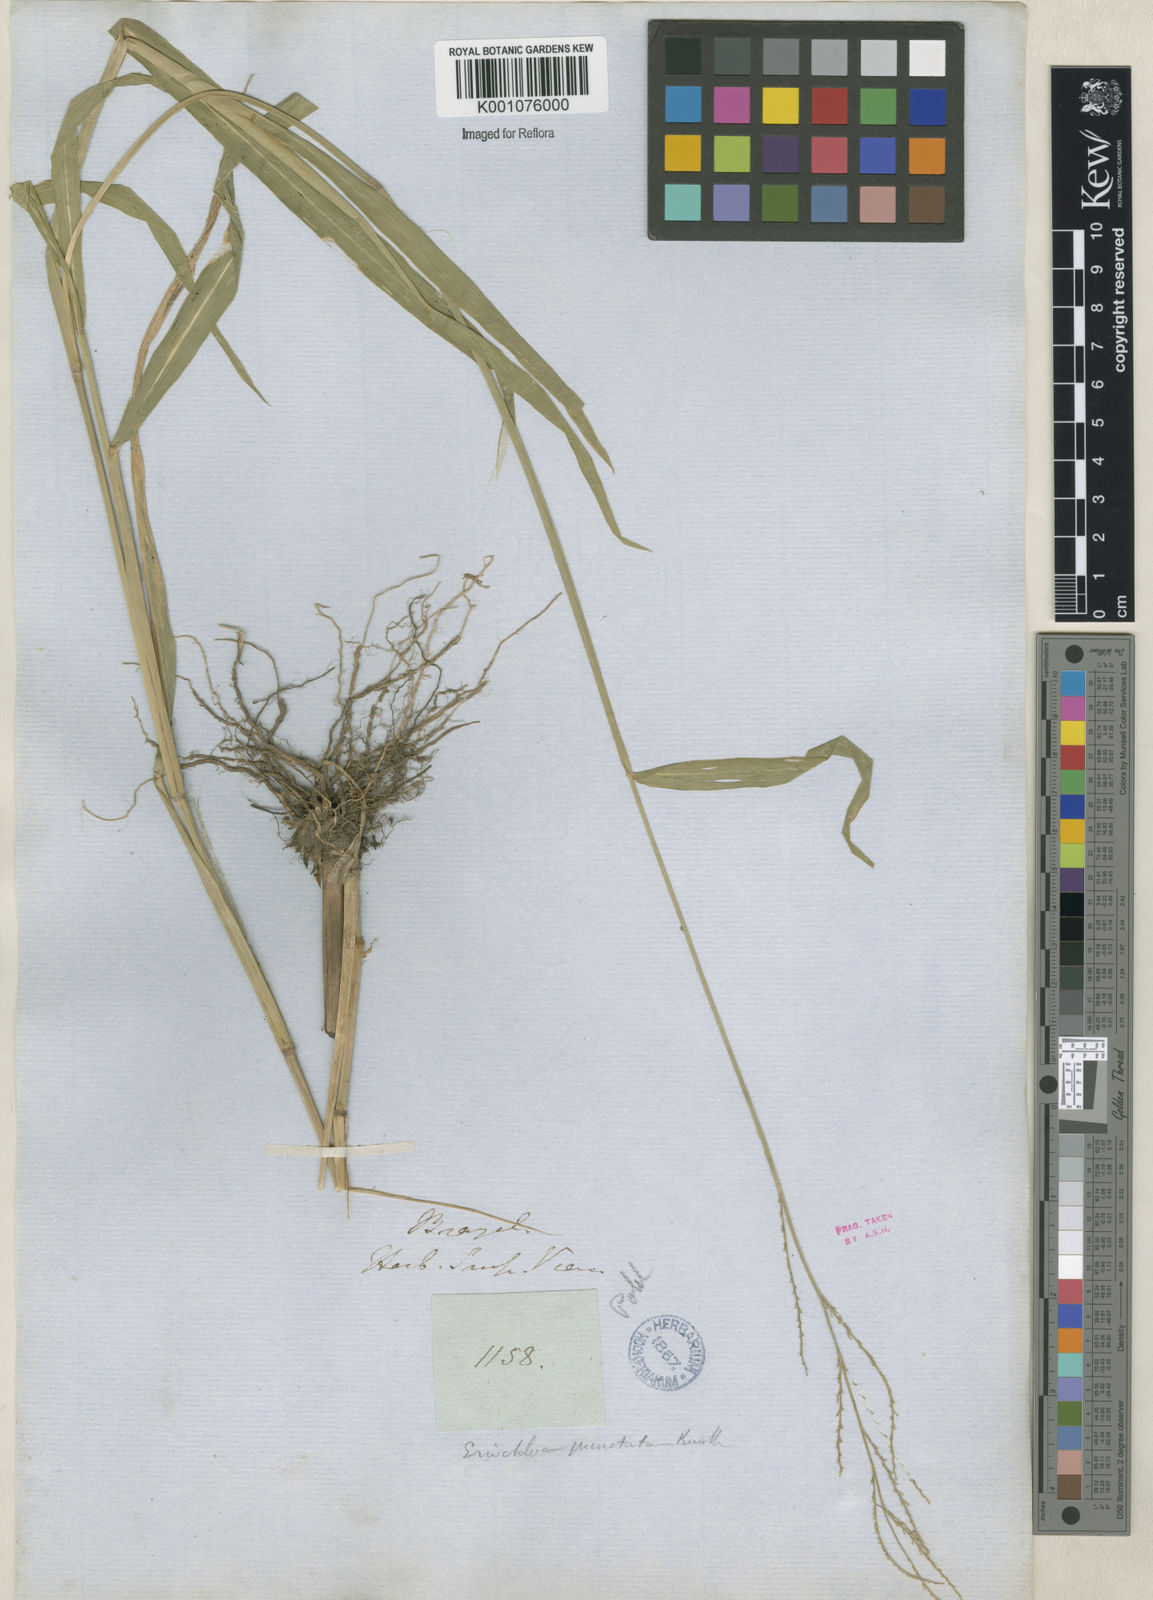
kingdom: Plantae
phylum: Tracheophyta
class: Liliopsida
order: Poales
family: Poaceae
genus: Eriochloa
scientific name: Eriochloa punctata
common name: Louisiana cupgrass
